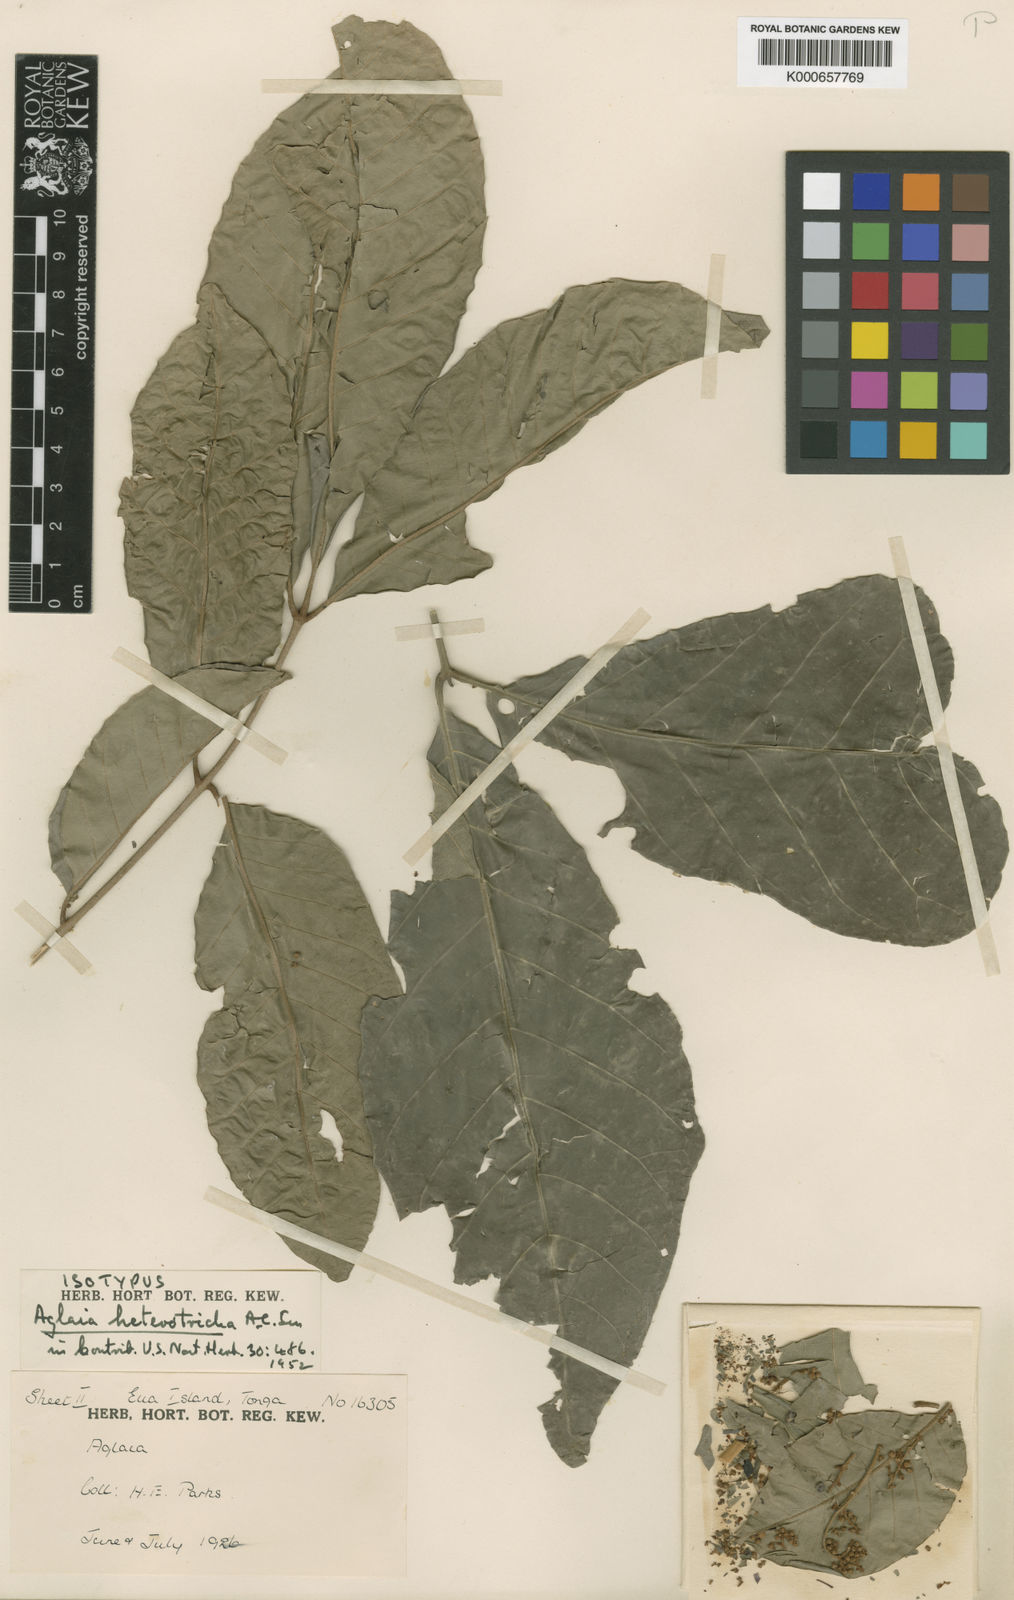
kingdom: Plantae
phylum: Tracheophyta
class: Magnoliopsida
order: Sapindales
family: Meliaceae
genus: Aglaia
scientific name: Aglaia saltatorum
